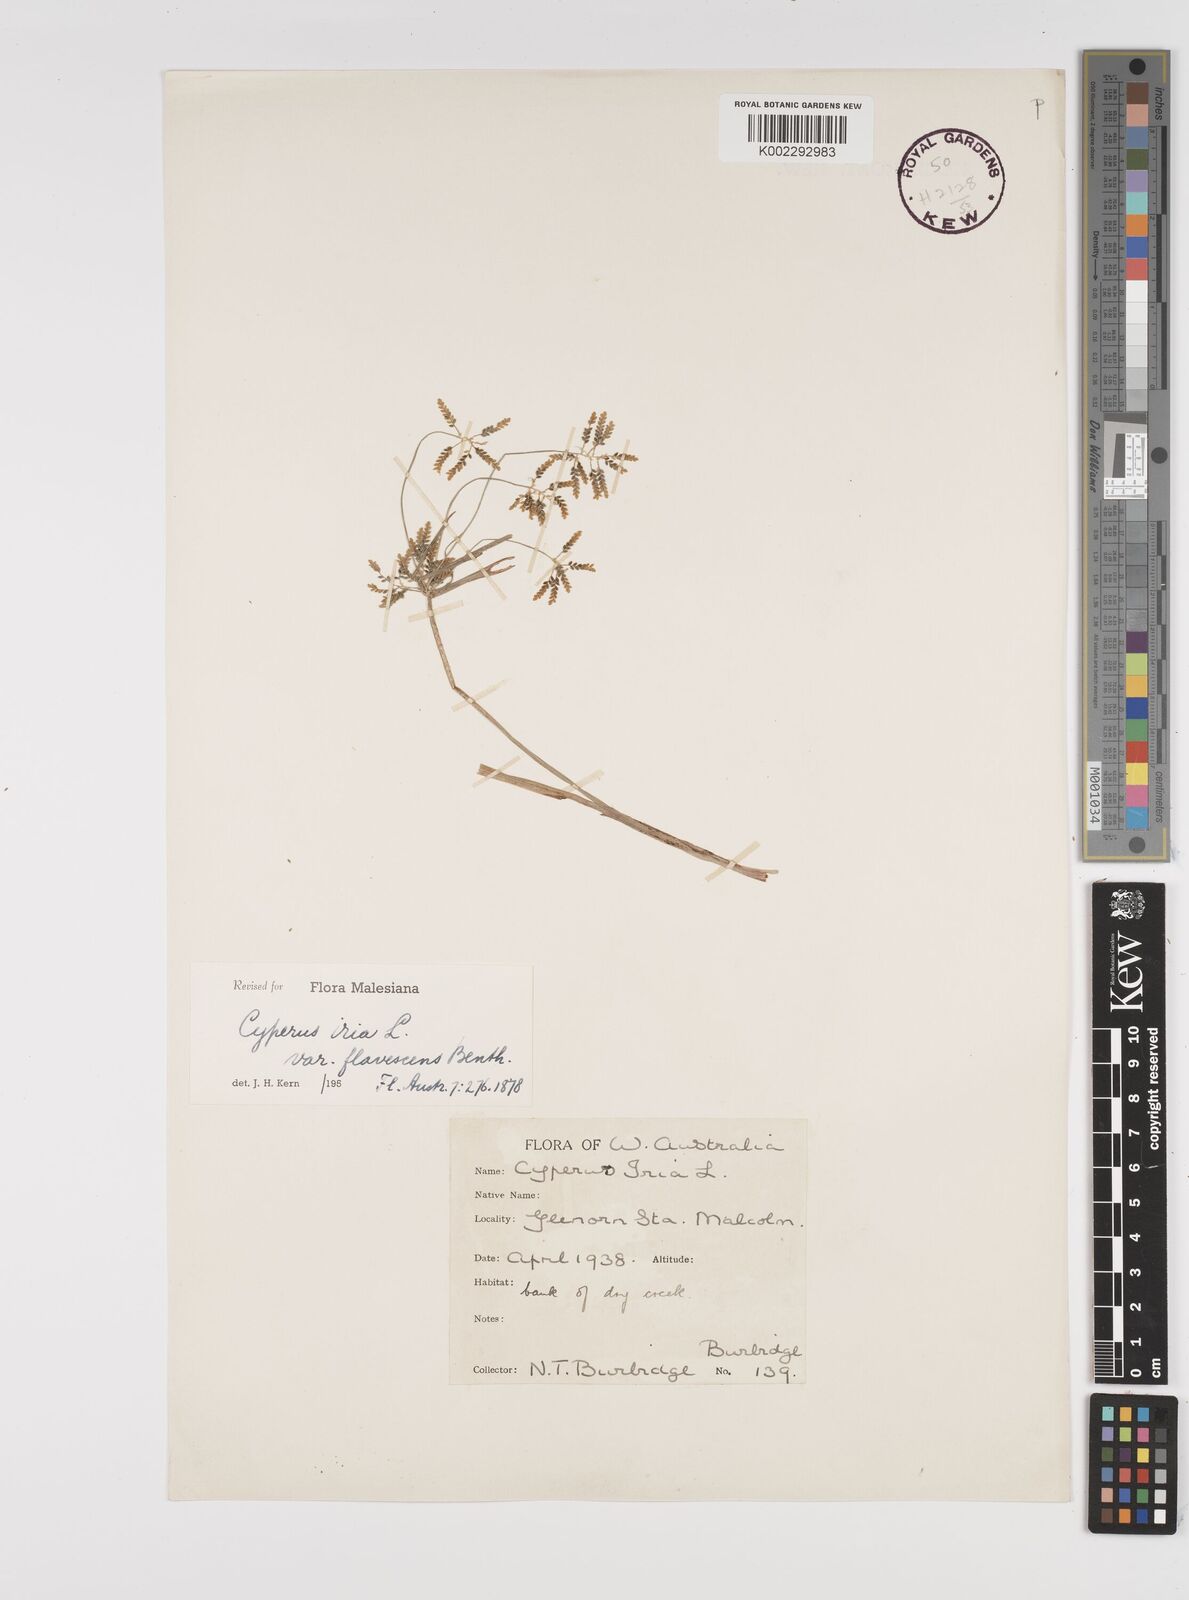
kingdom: Plantae
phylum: Tracheophyta
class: Liliopsida
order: Poales
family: Cyperaceae
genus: Cyperus
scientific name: Cyperus iria
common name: Ricefield flatsedge
